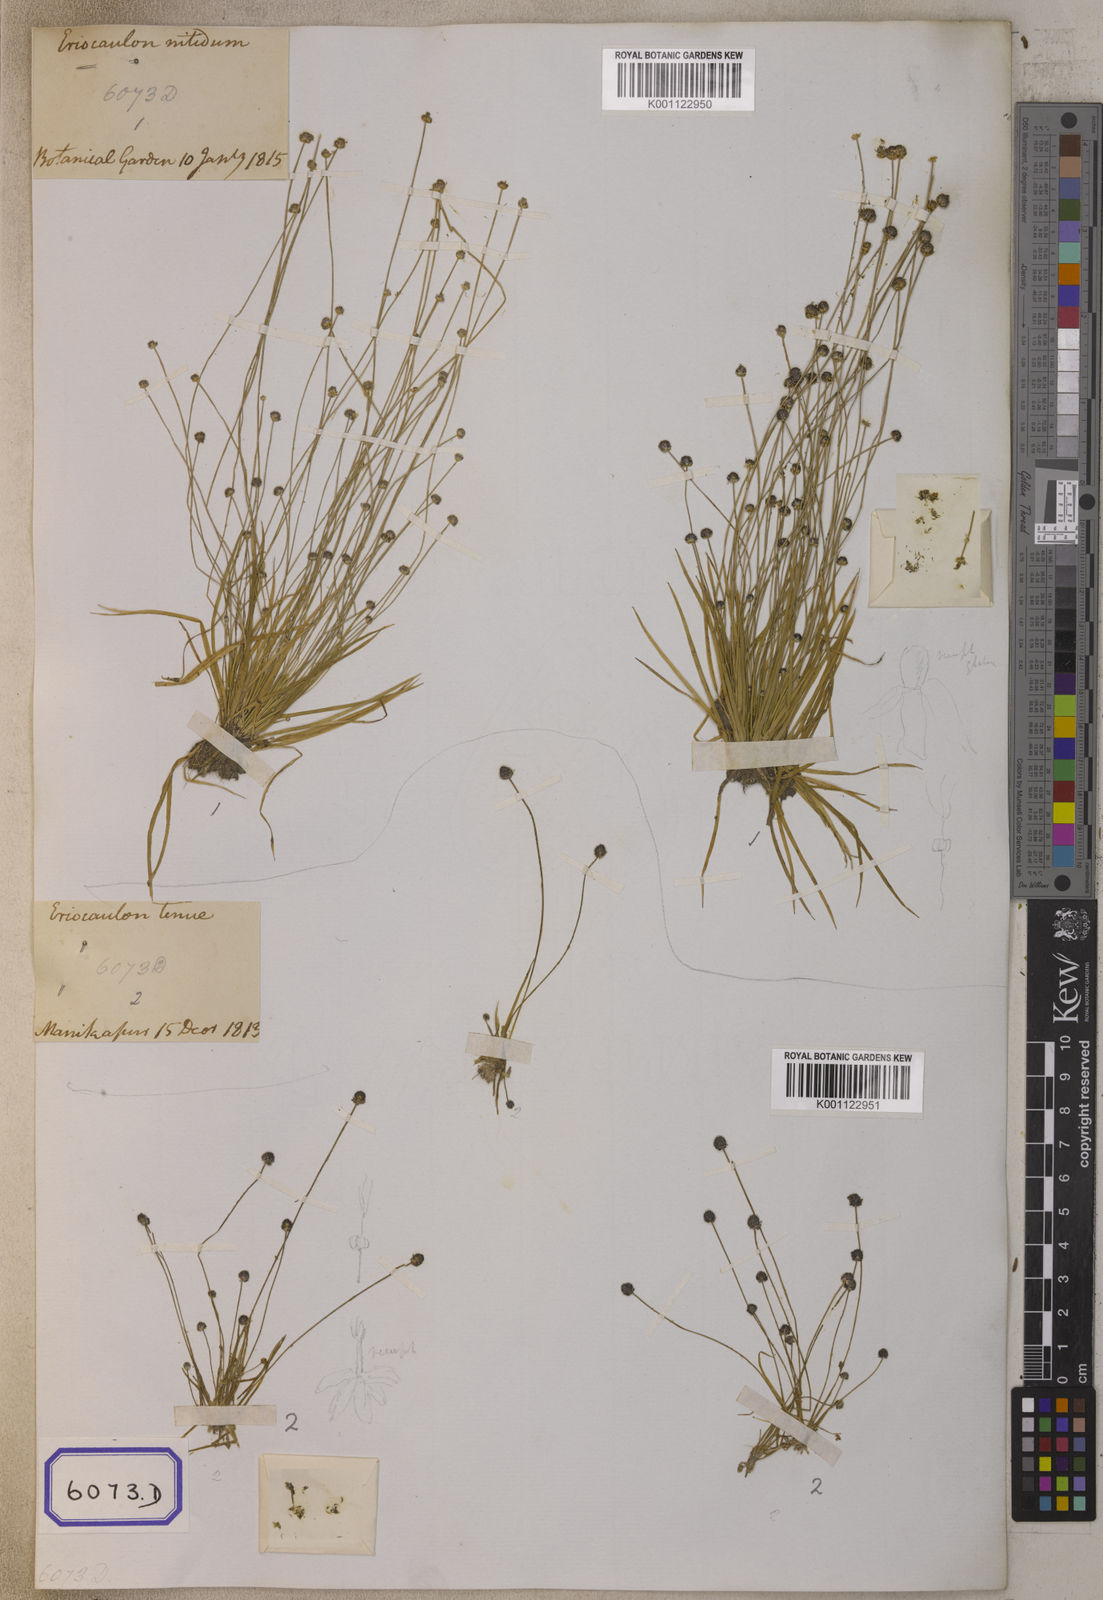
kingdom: Plantae
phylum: Tracheophyta
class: Liliopsida
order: Poales
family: Eriocaulaceae
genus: Eriocaulon
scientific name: Eriocaulon
